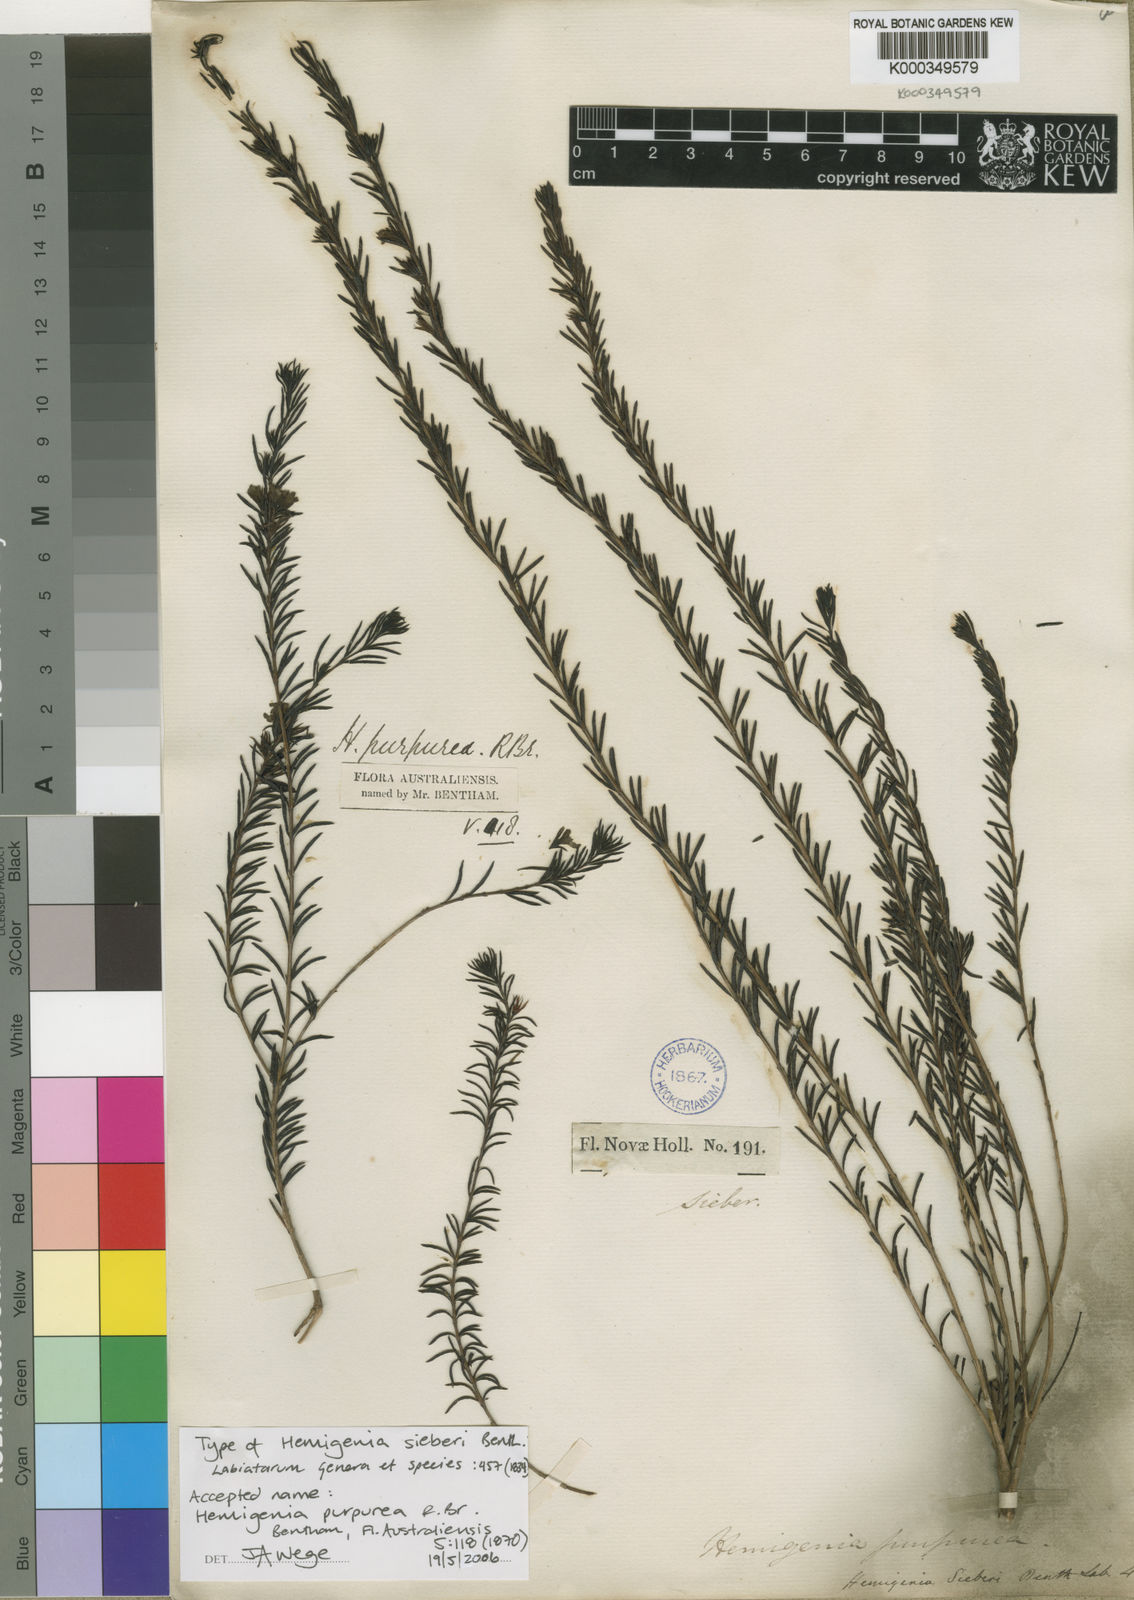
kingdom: Plantae
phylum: Tracheophyta
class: Magnoliopsida
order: Lamiales
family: Lamiaceae
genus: Hemigenia
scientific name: Hemigenia purpurea
